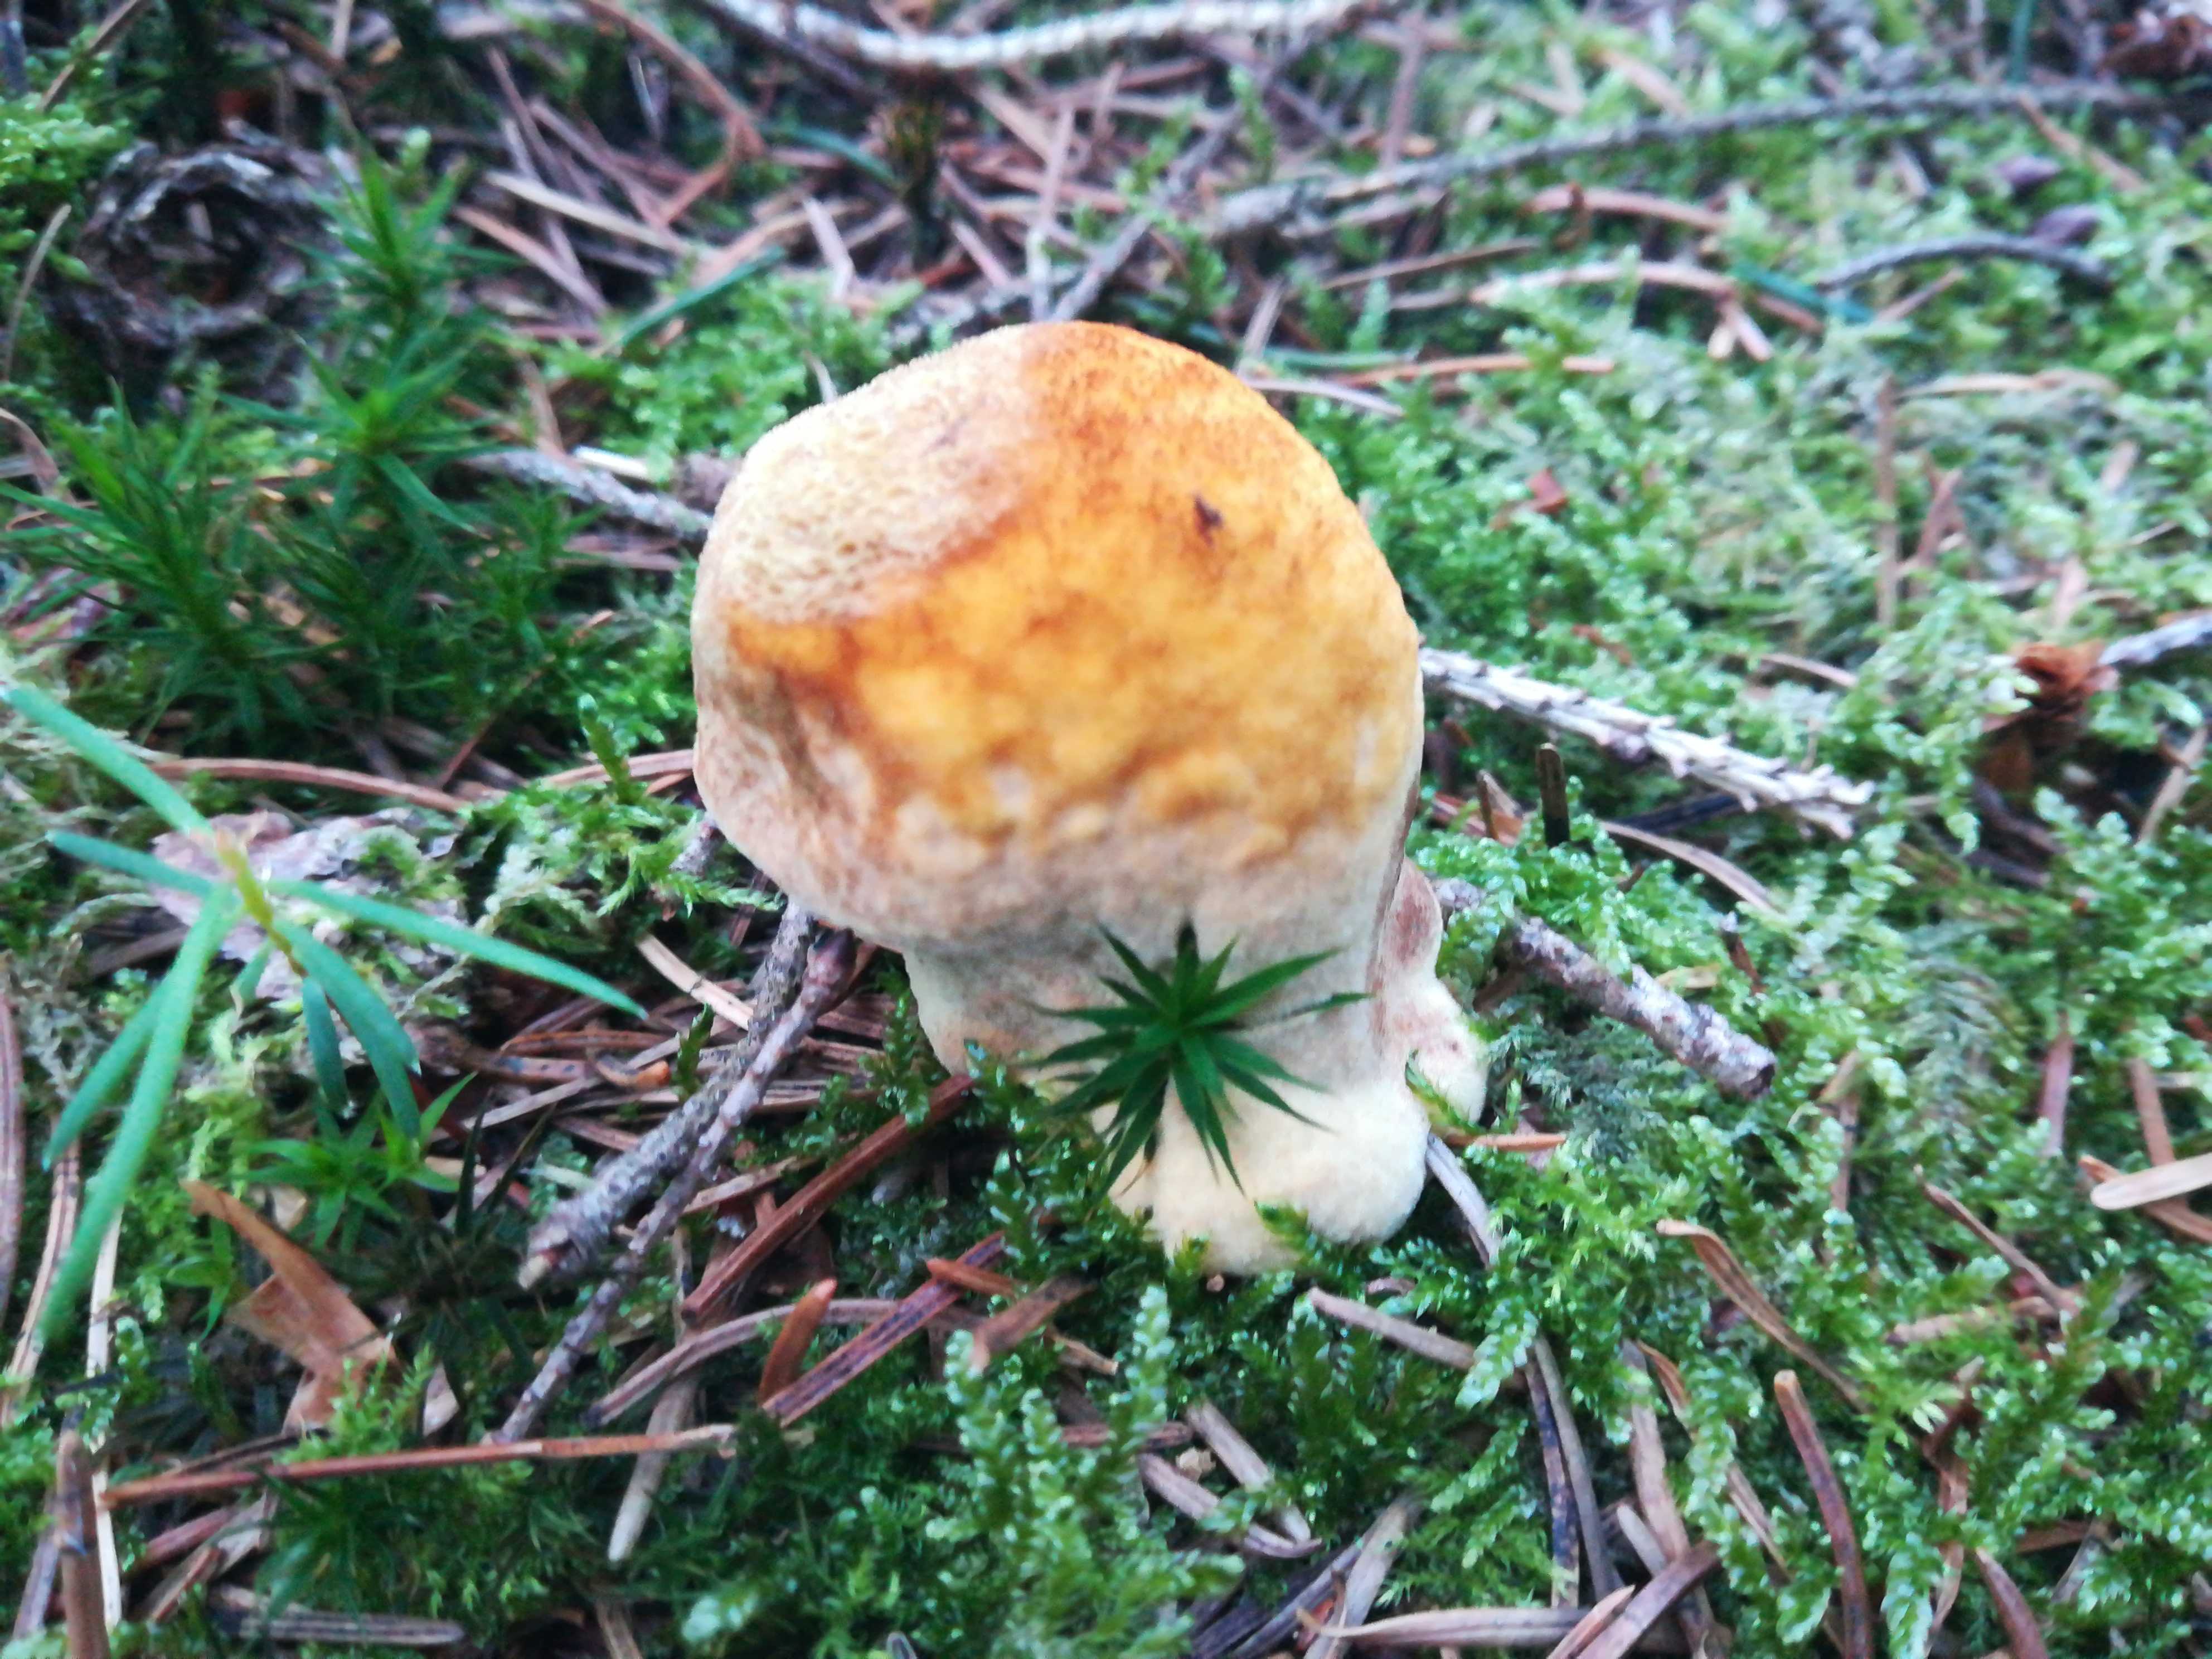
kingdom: Fungi
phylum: Basidiomycota
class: Agaricomycetes
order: Polyporales
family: Laetiporaceae
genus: Phaeolus
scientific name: Phaeolus schweinitzii
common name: brunporesvamp
